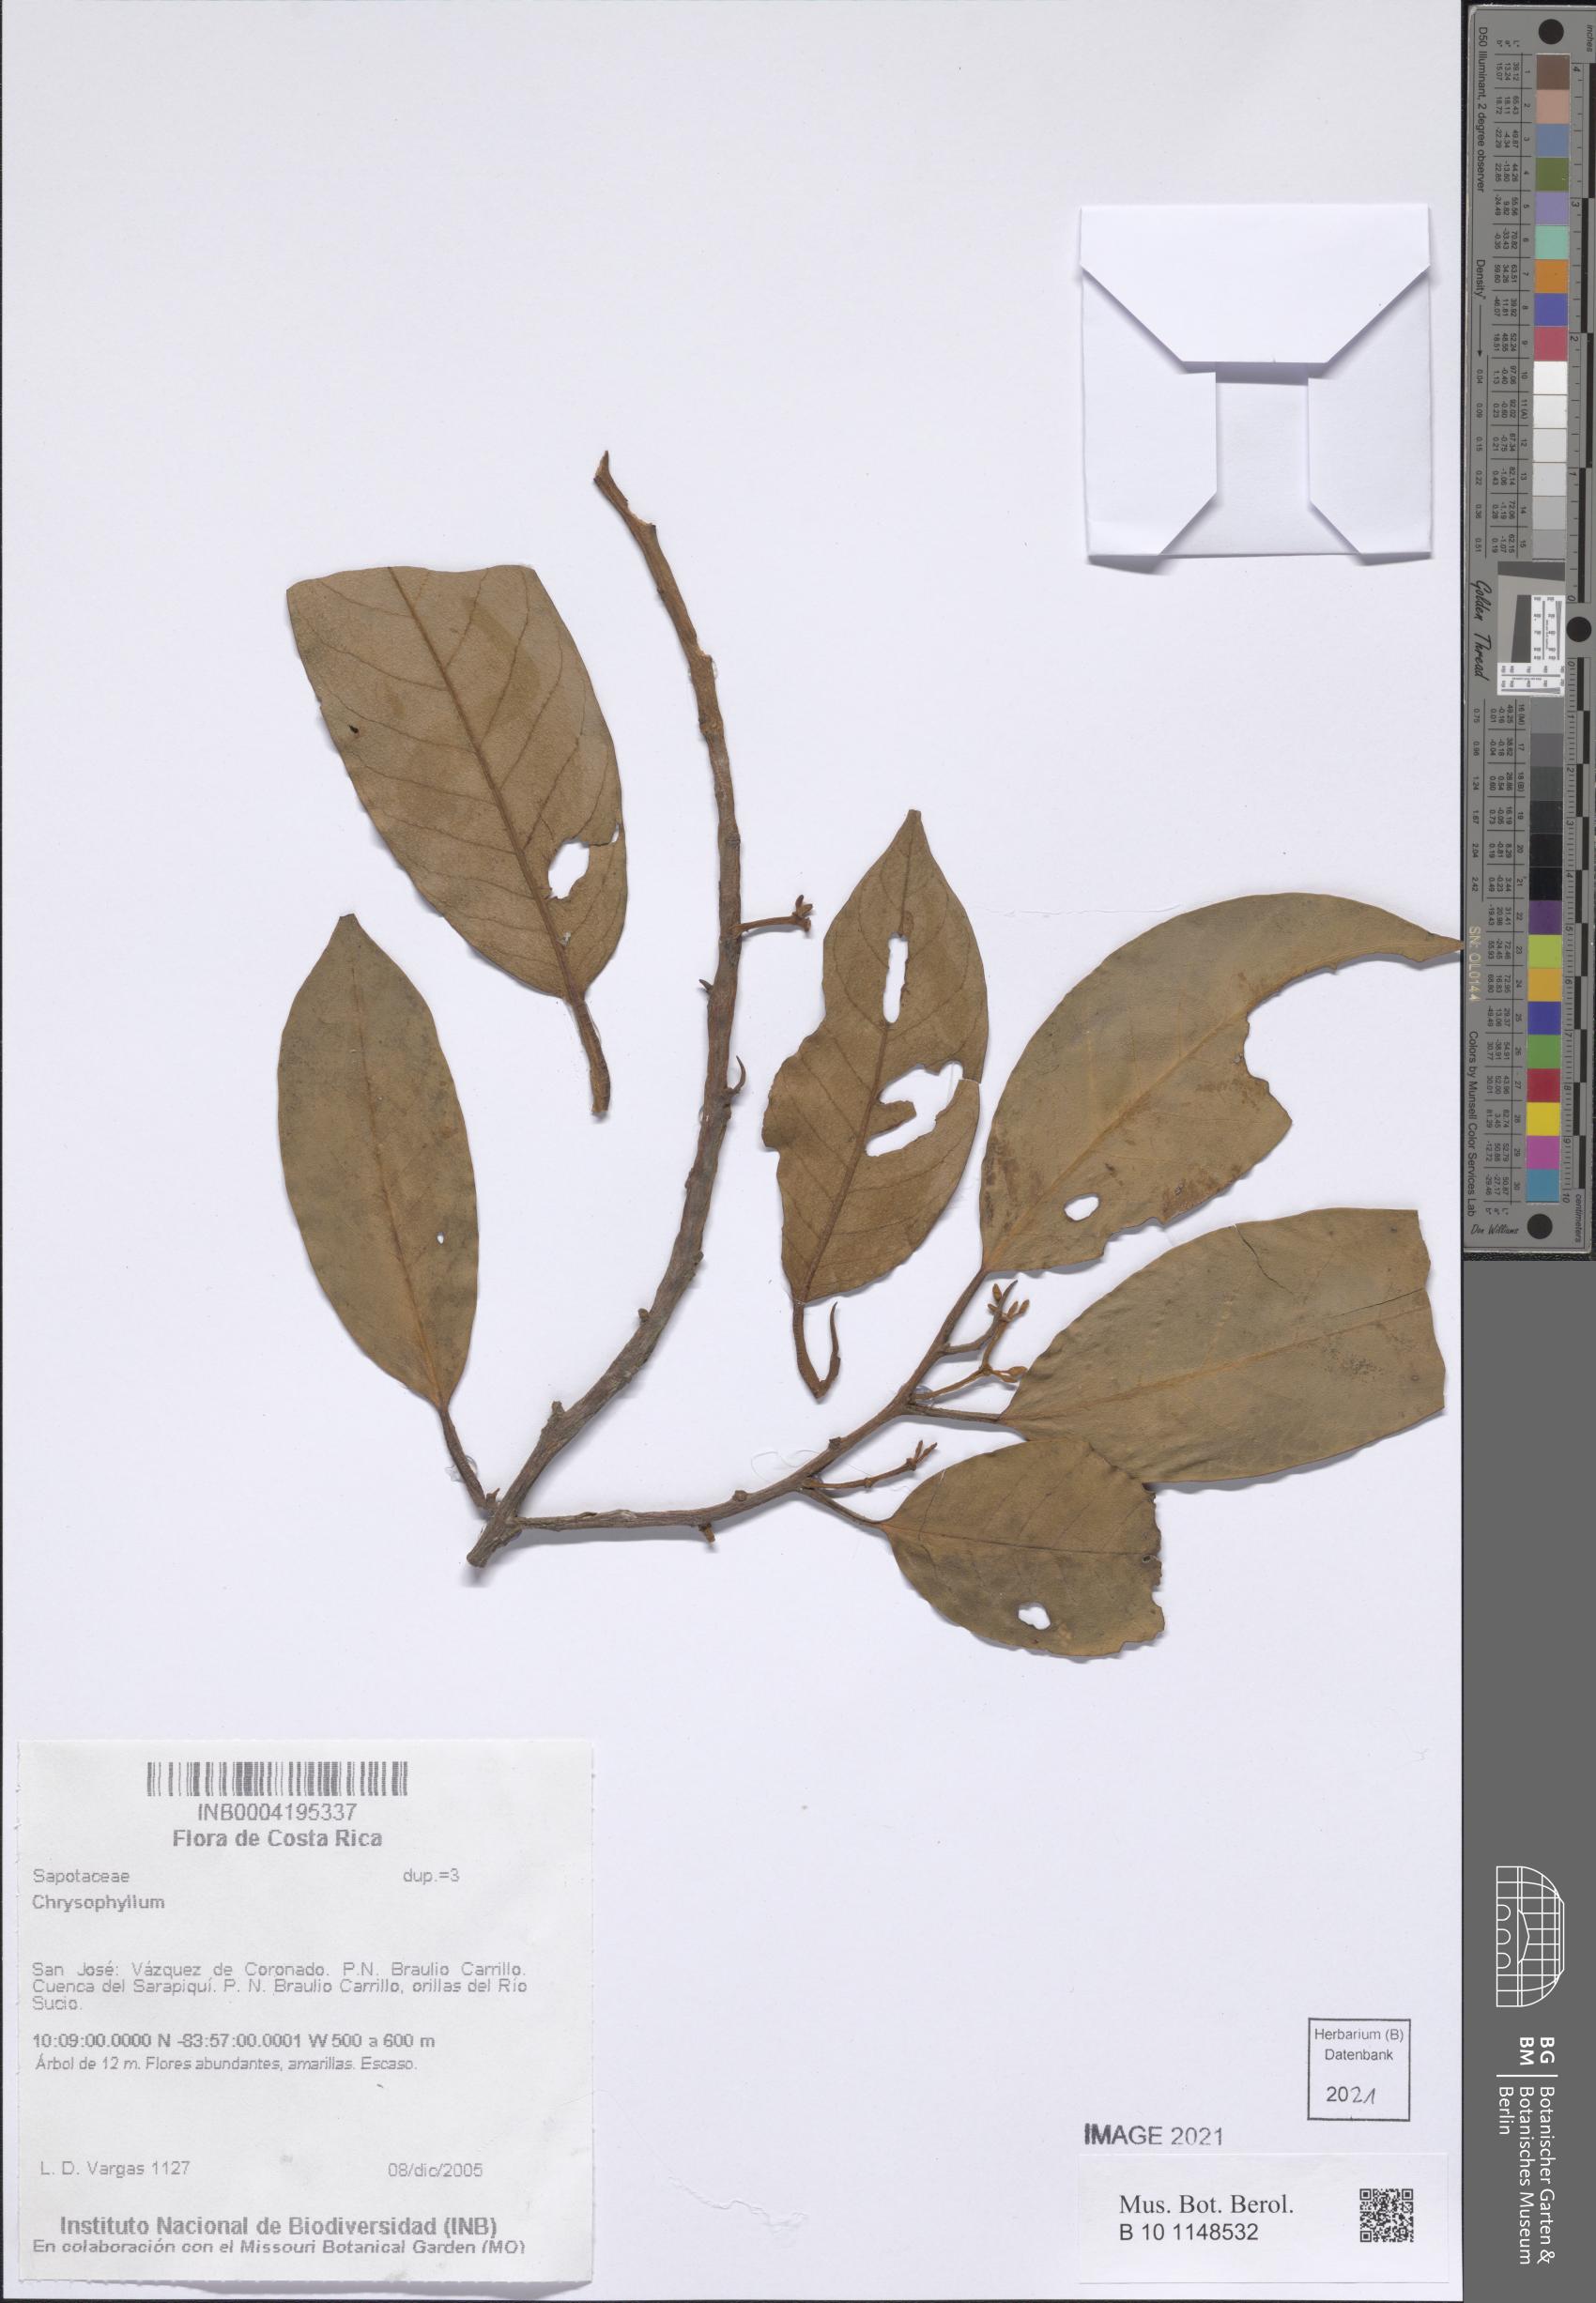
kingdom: Plantae
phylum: Tracheophyta
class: Magnoliopsida
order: Ericales
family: Sapotaceae
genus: Chrysophyllum
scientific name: Chrysophyllum
